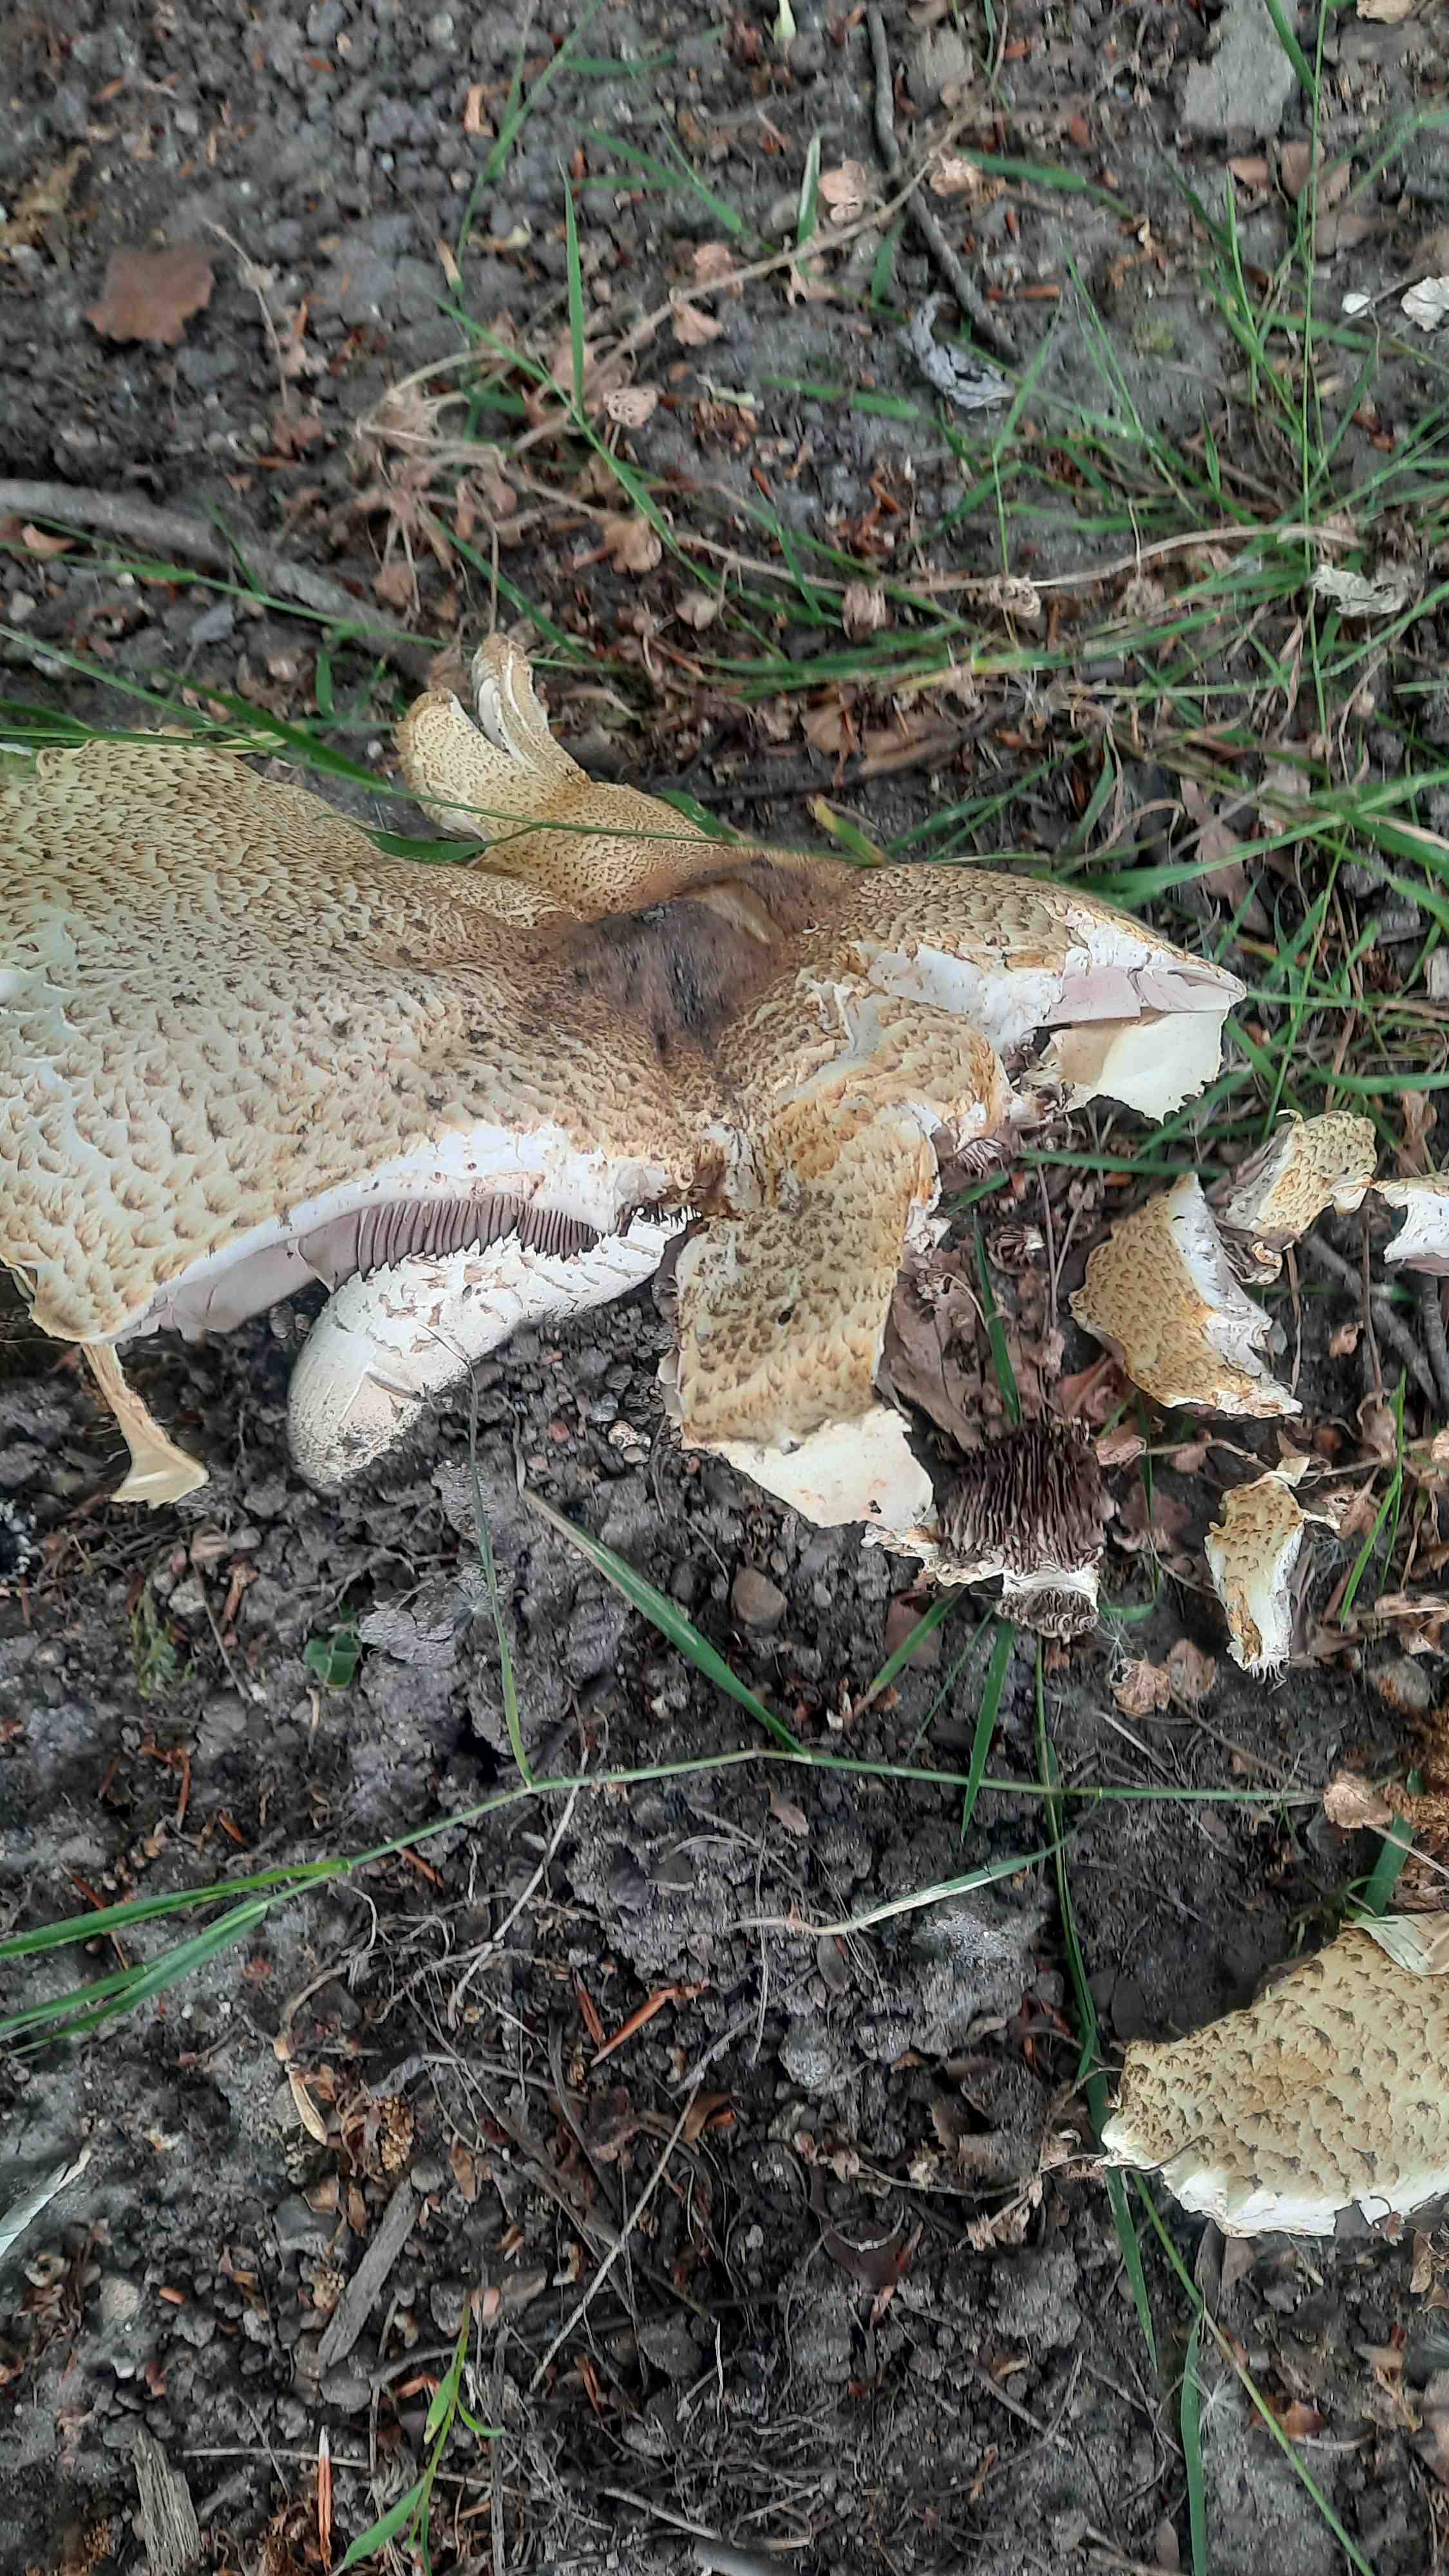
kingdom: Fungi
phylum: Basidiomycota
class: Agaricomycetes
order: Agaricales
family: Agaricaceae
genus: Agaricus
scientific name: Agaricus augustus
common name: prægtig champignon
